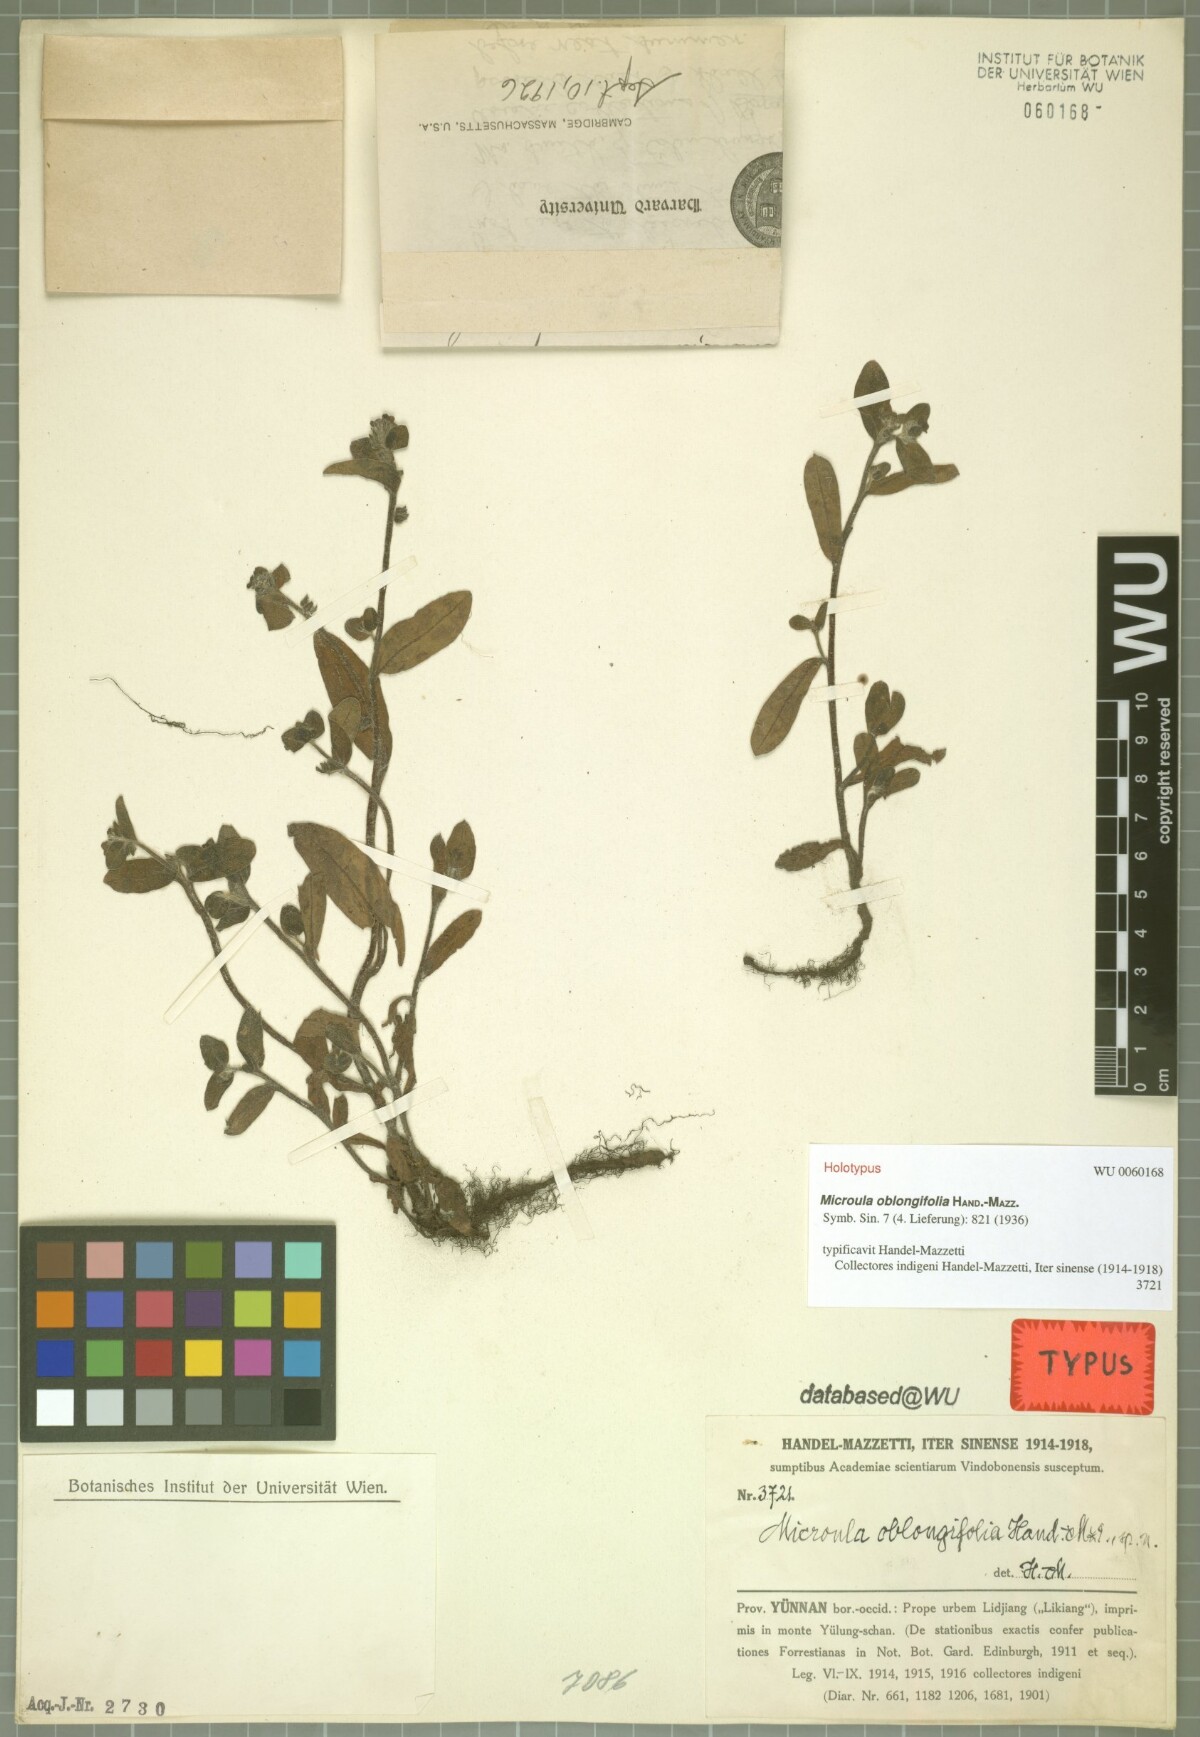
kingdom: Plantae
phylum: Tracheophyta
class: Magnoliopsida
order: Boraginales
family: Boraginaceae
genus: Microula
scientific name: Microula oblongifolia
